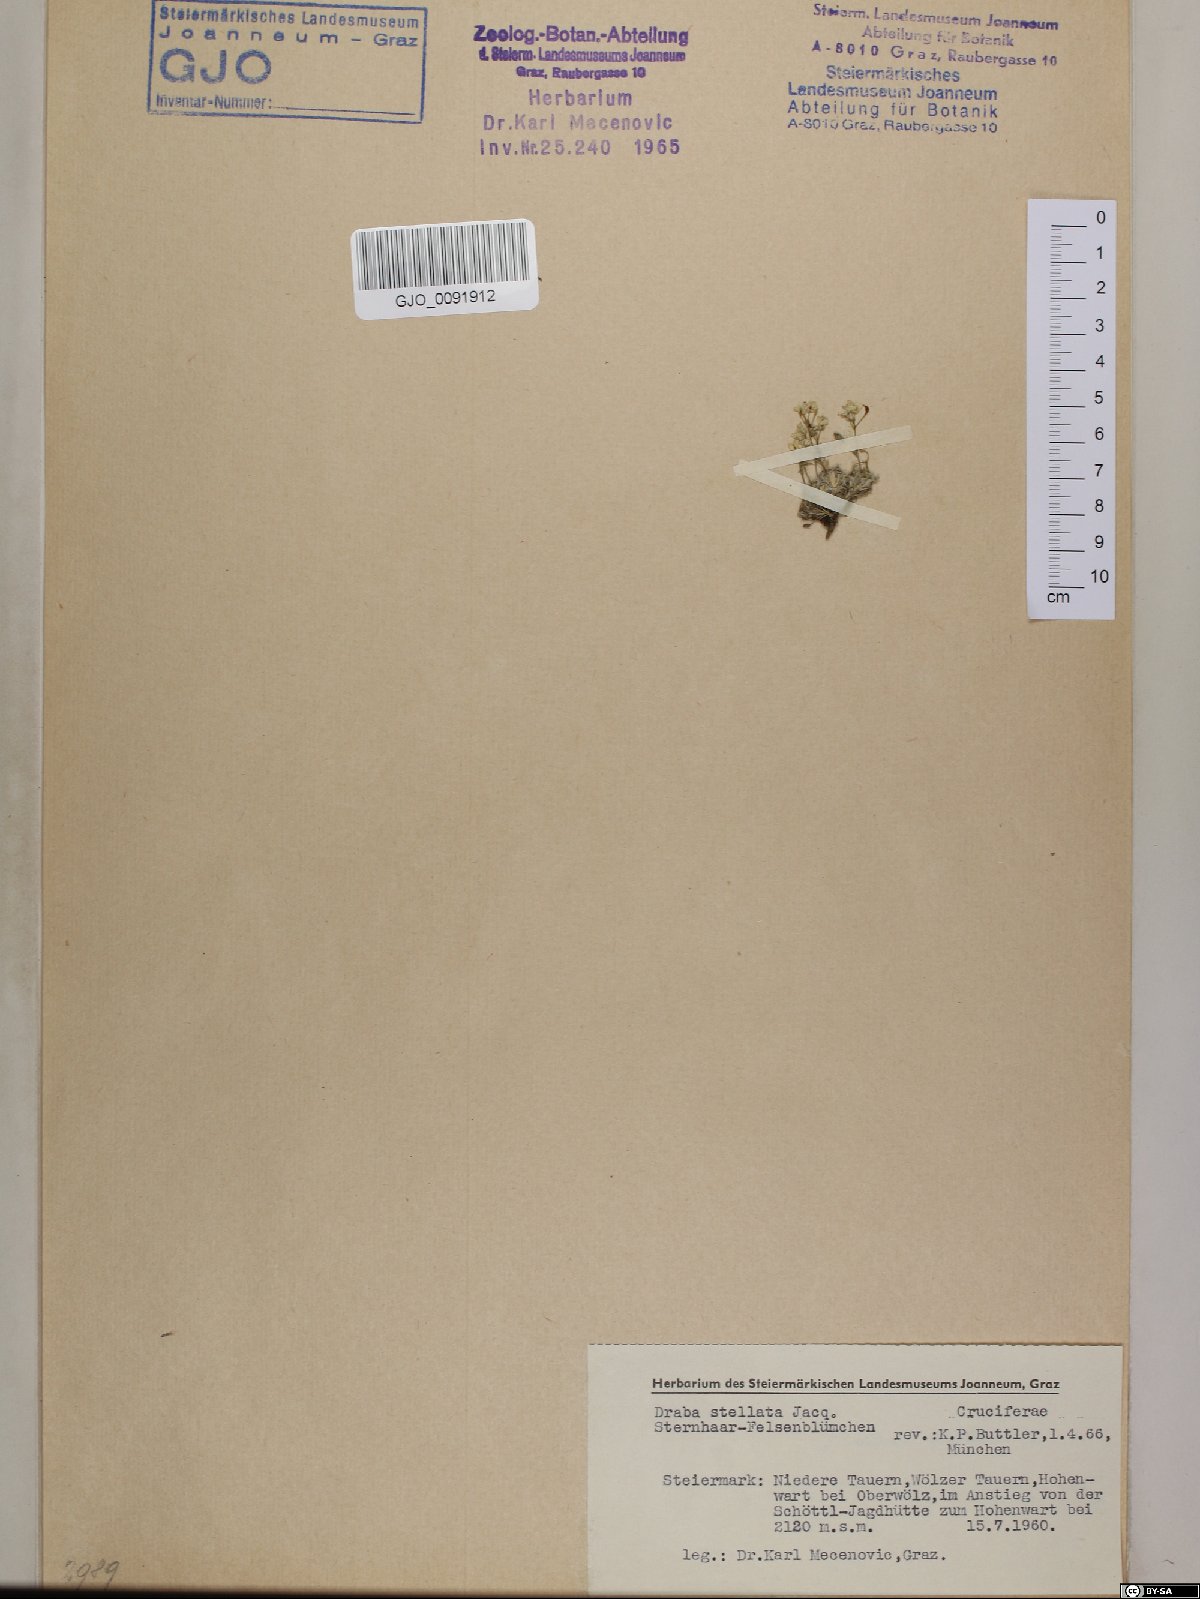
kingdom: Plantae
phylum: Tracheophyta
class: Magnoliopsida
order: Brassicales
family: Brassicaceae
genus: Draba
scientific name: Draba stellata
